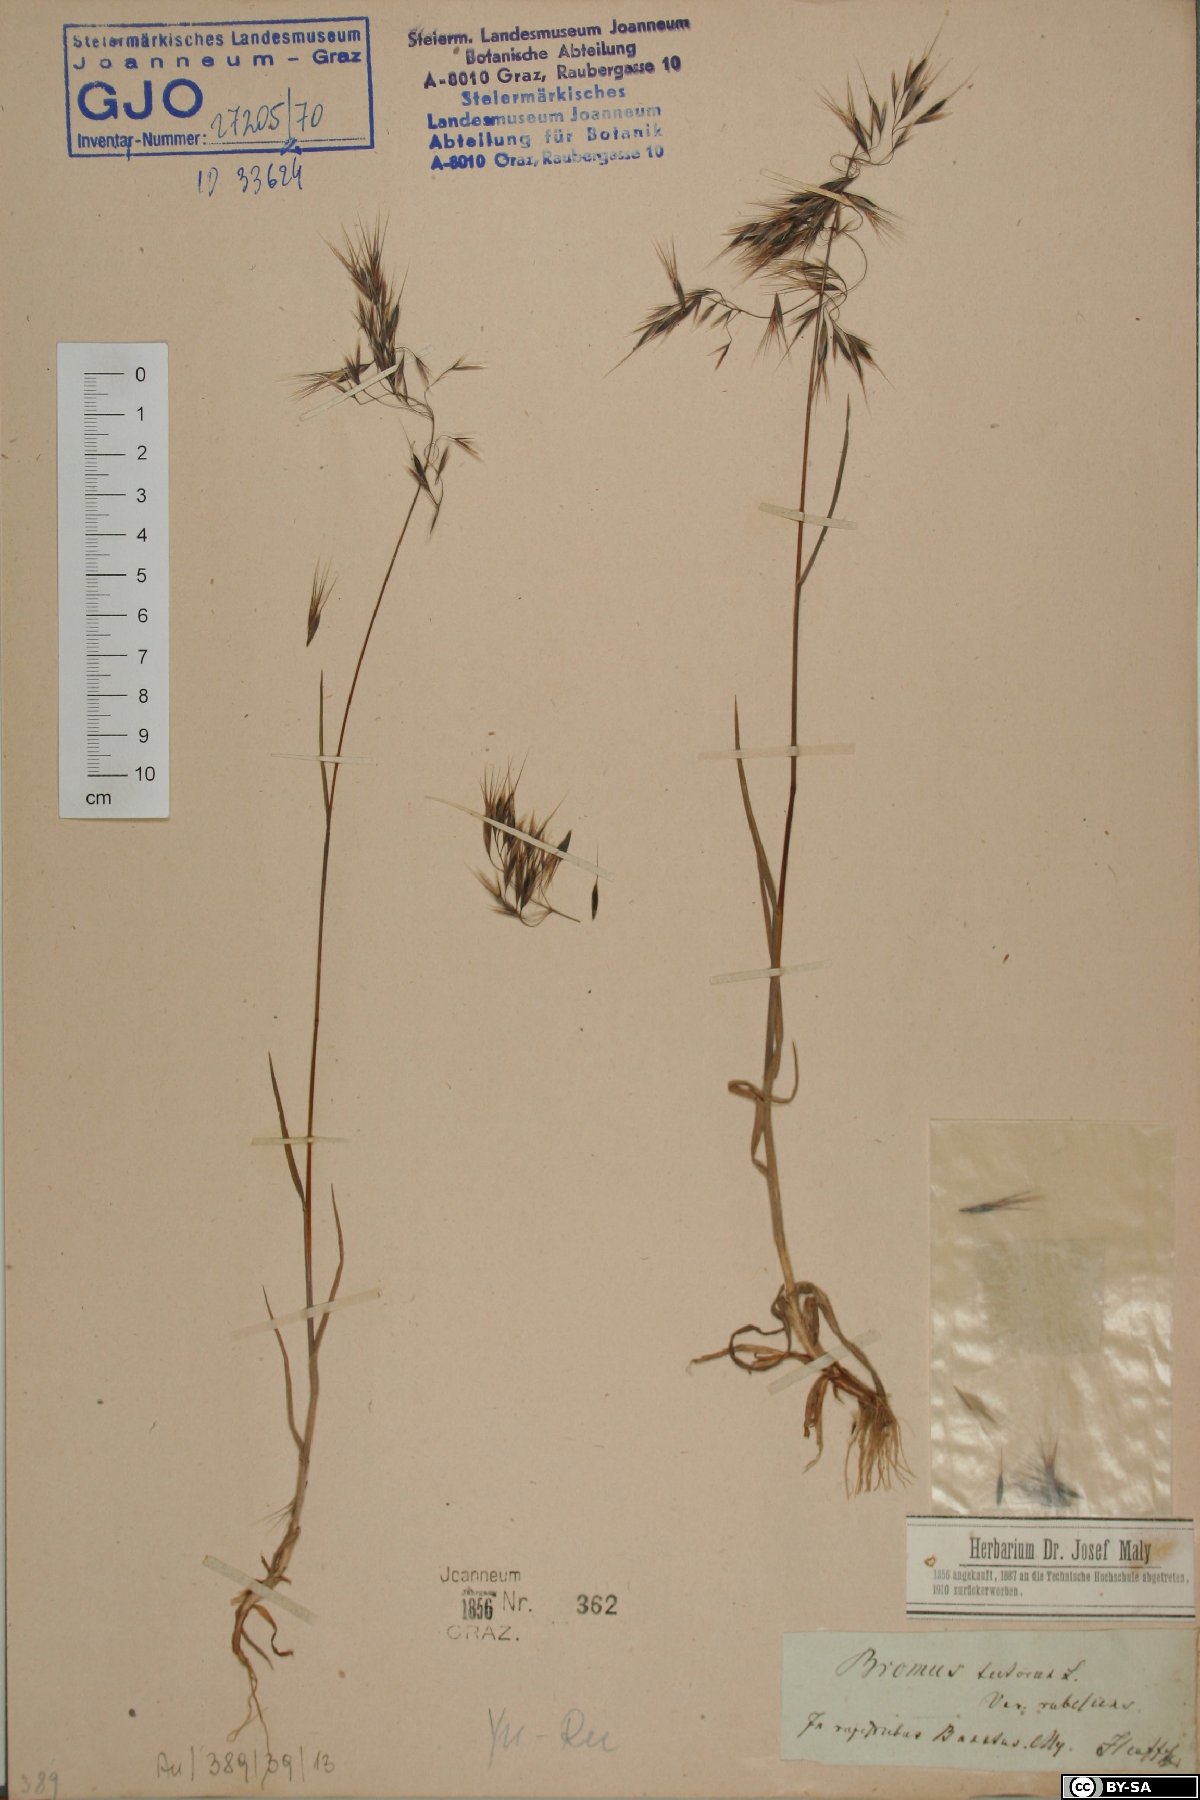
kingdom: Plantae
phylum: Tracheophyta
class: Liliopsida
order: Poales
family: Poaceae
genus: Bromus
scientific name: Bromus tectorum
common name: Cheatgrass
